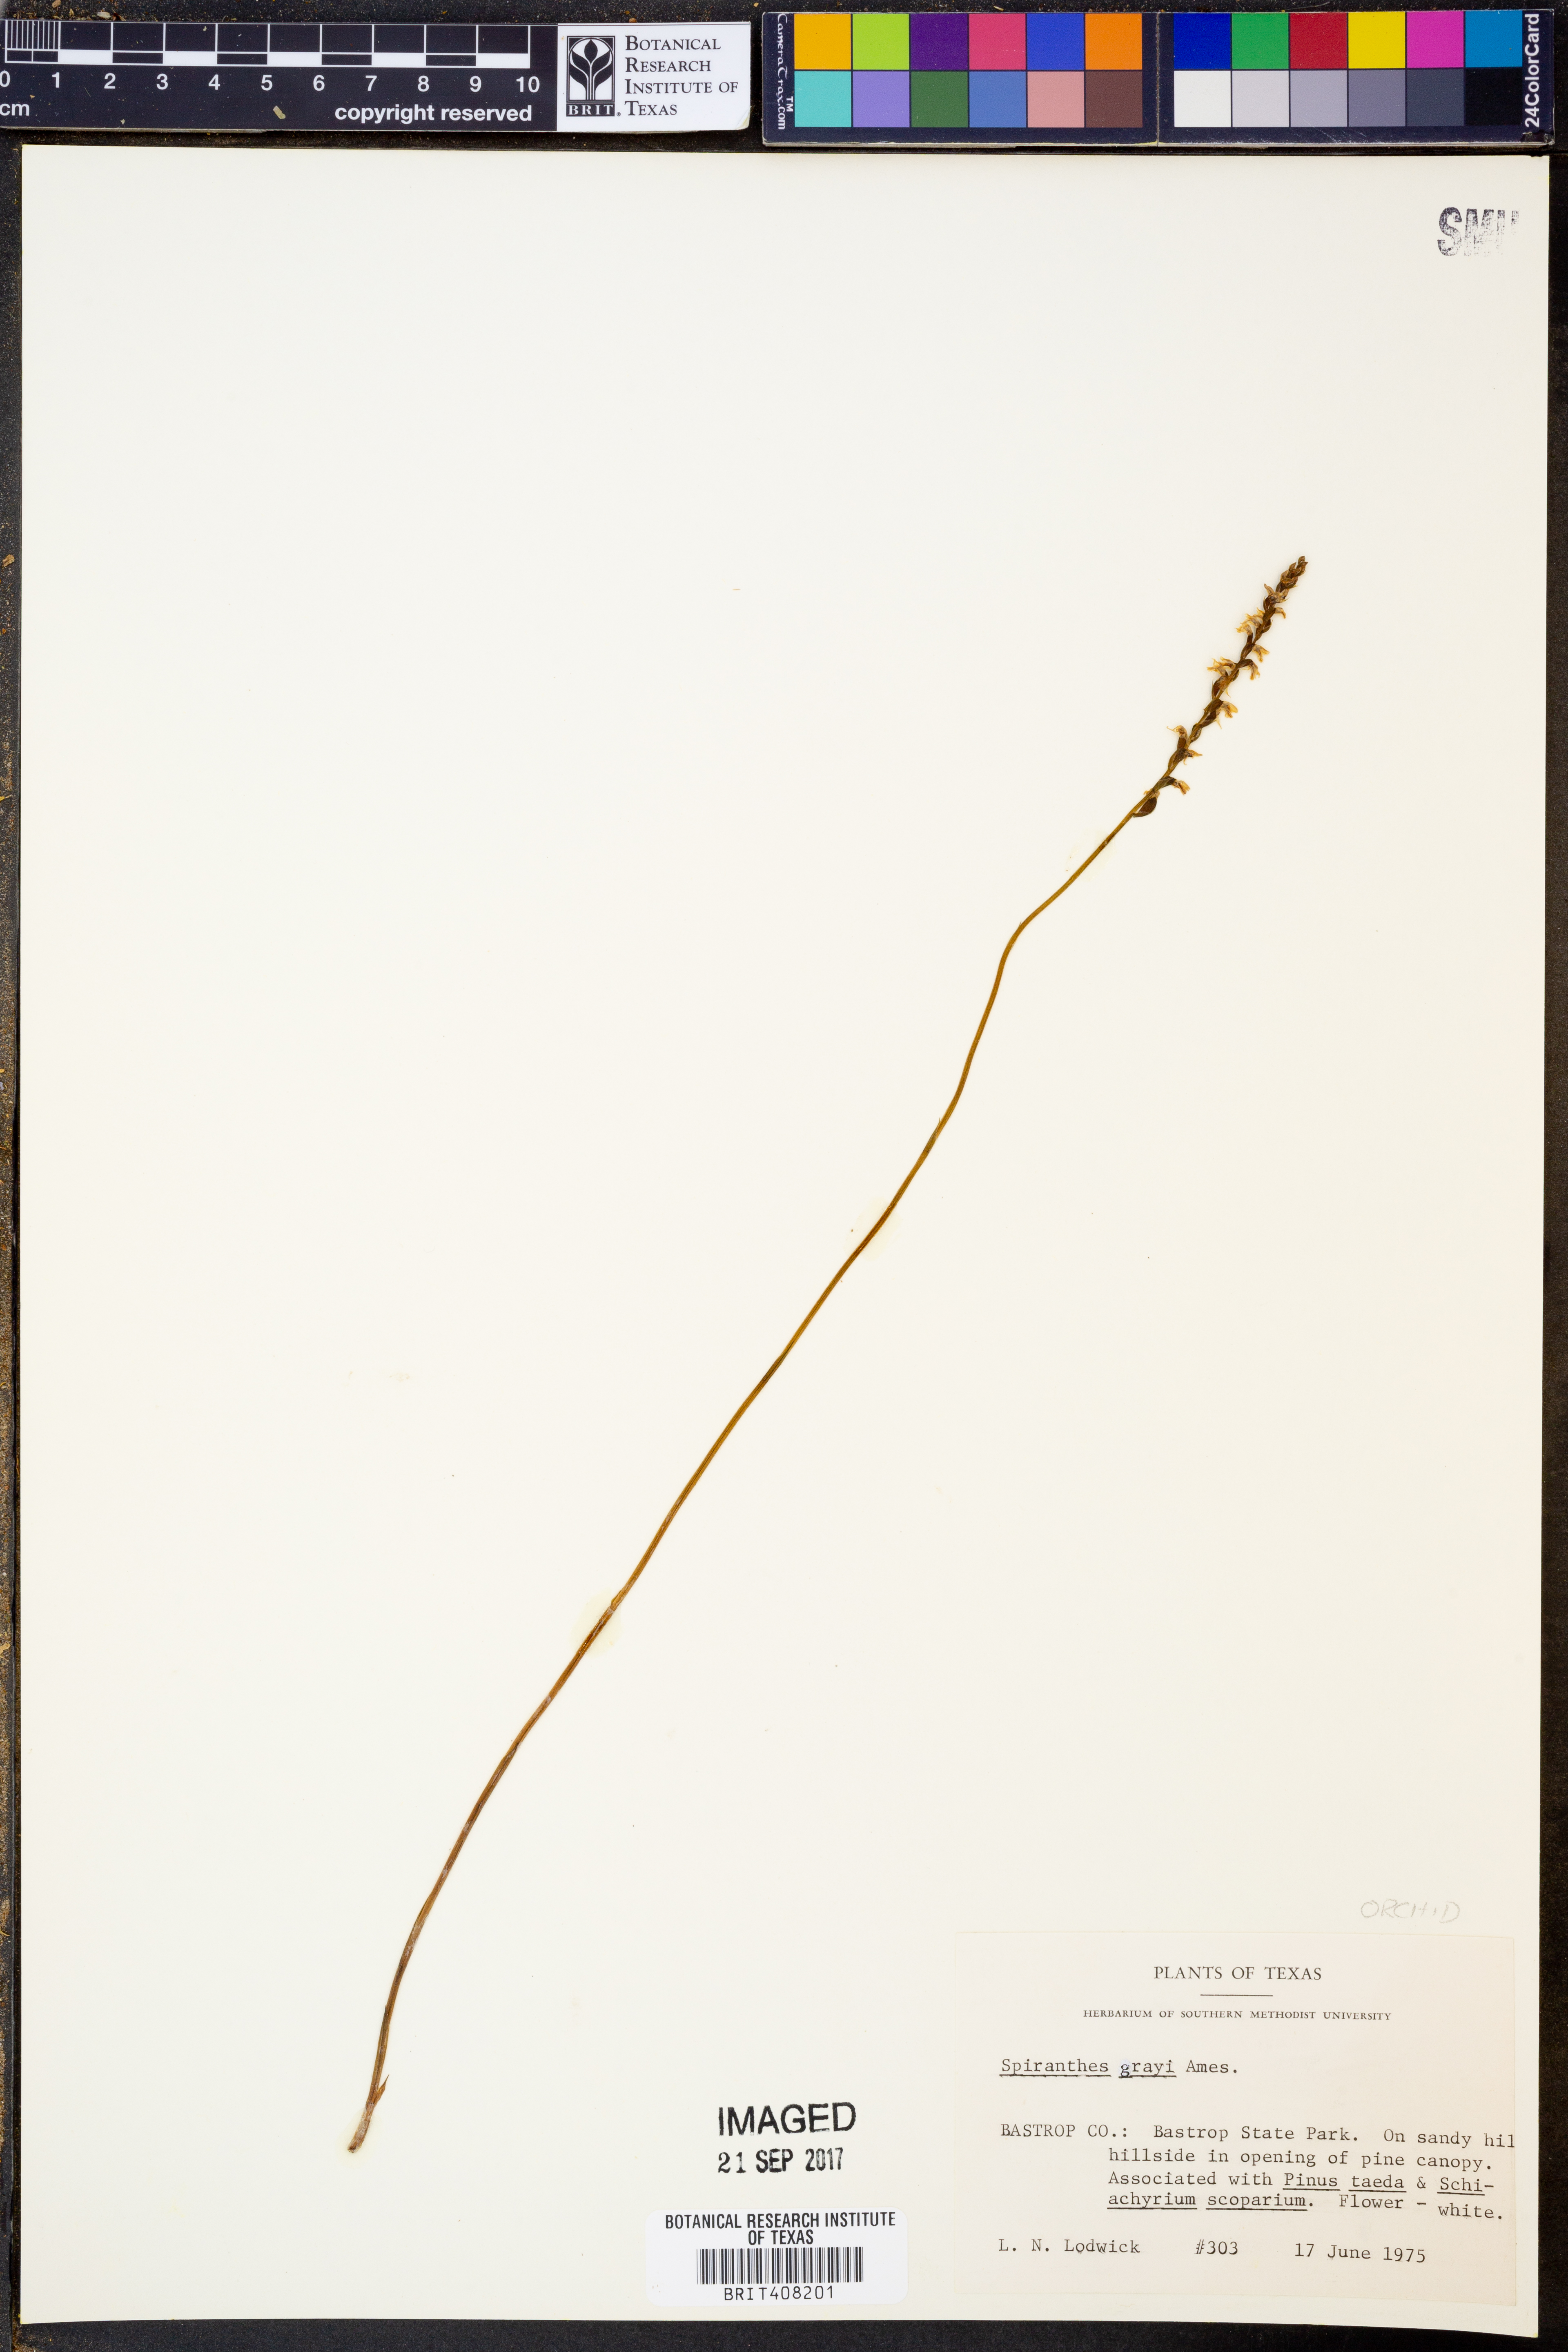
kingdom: Plantae
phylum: Tracheophyta
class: Liliopsida
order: Asparagales
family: Orchidaceae
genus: Spiranthes
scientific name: Spiranthes tuberosa
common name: Little ladies'-tresses
